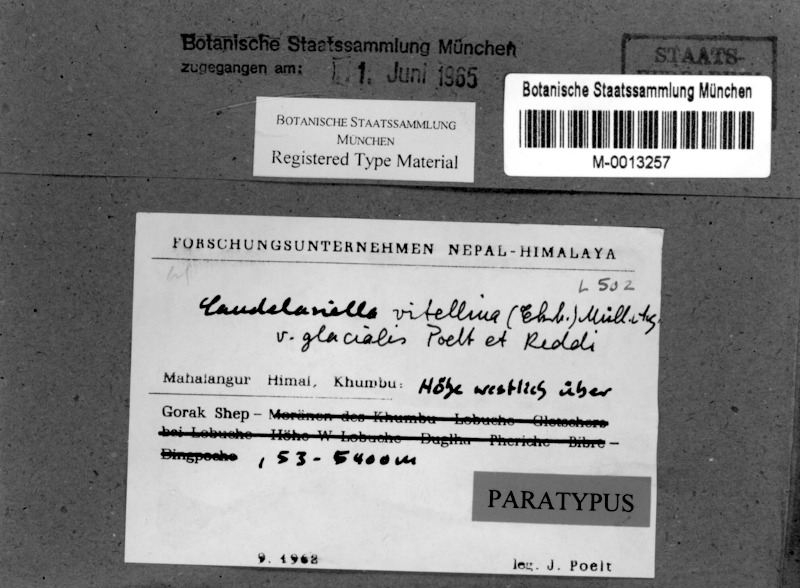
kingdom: Fungi
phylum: Ascomycota
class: Candelariomycetes
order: Candelariales
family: Candelariaceae
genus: Candelariella
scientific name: Candelariella vitellina
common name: Common goldspeck
